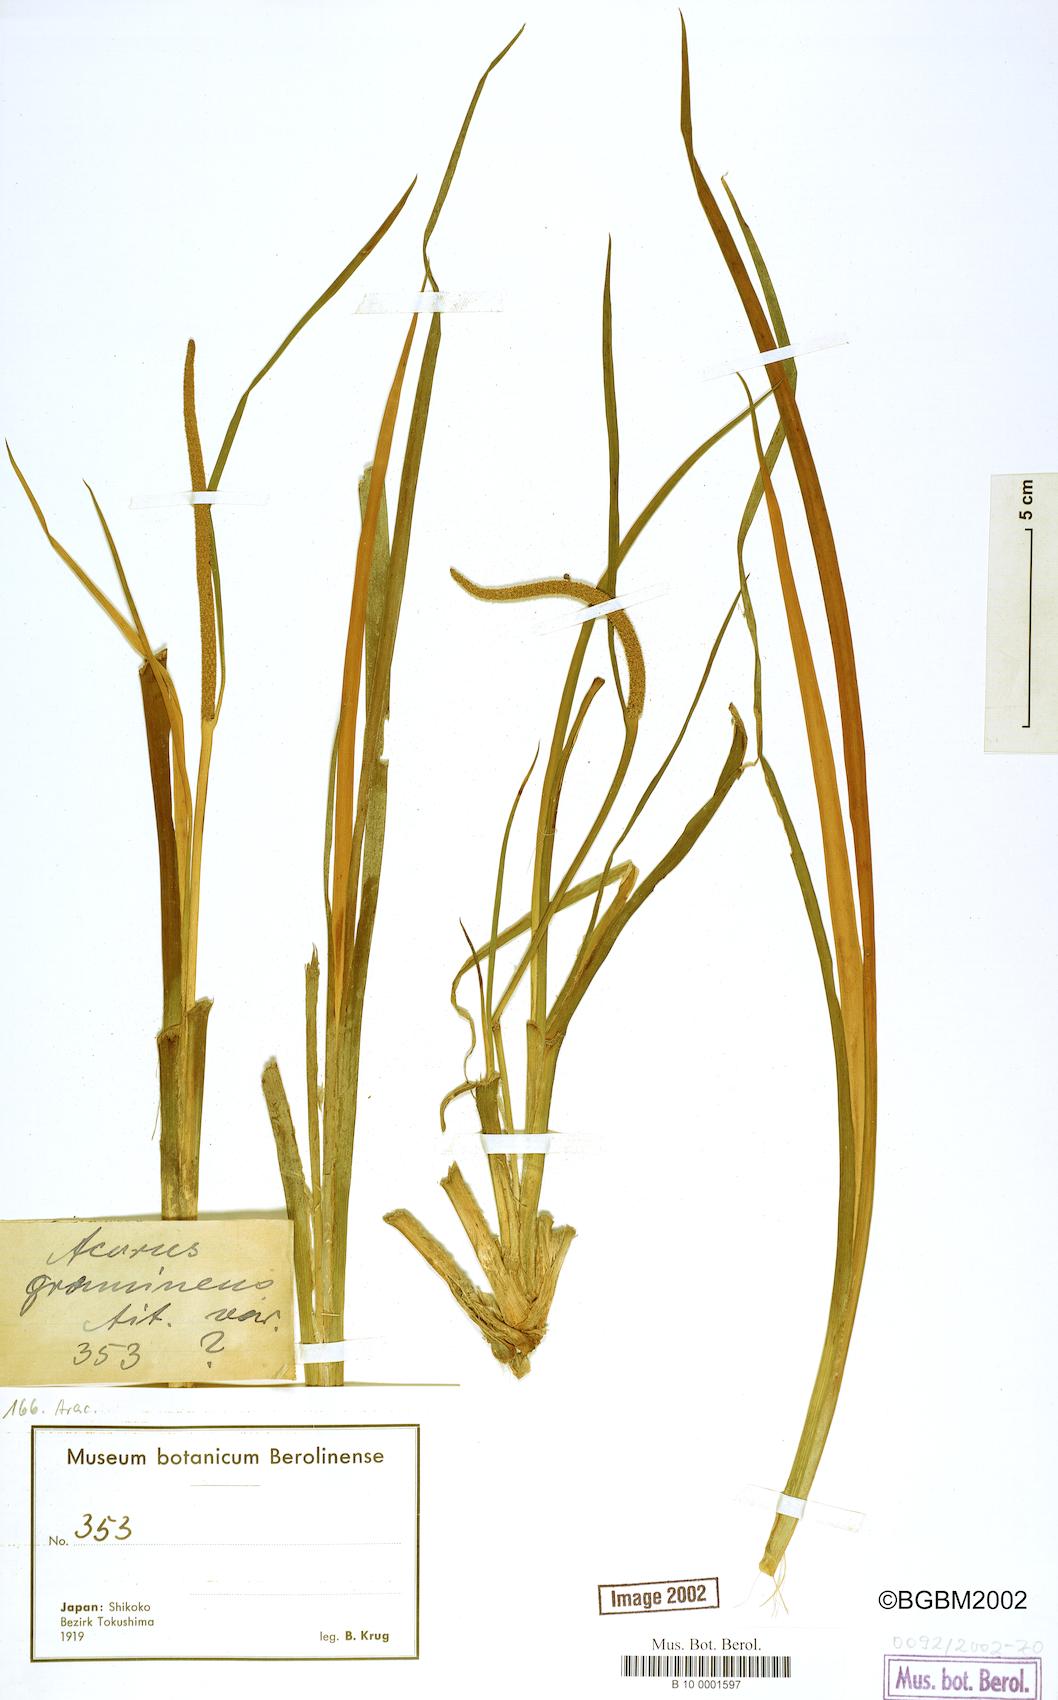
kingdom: Plantae
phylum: Tracheophyta
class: Liliopsida
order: Acorales
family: Acoraceae
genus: Acorus
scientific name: Acorus gramineus
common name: Slender sweet-flag
